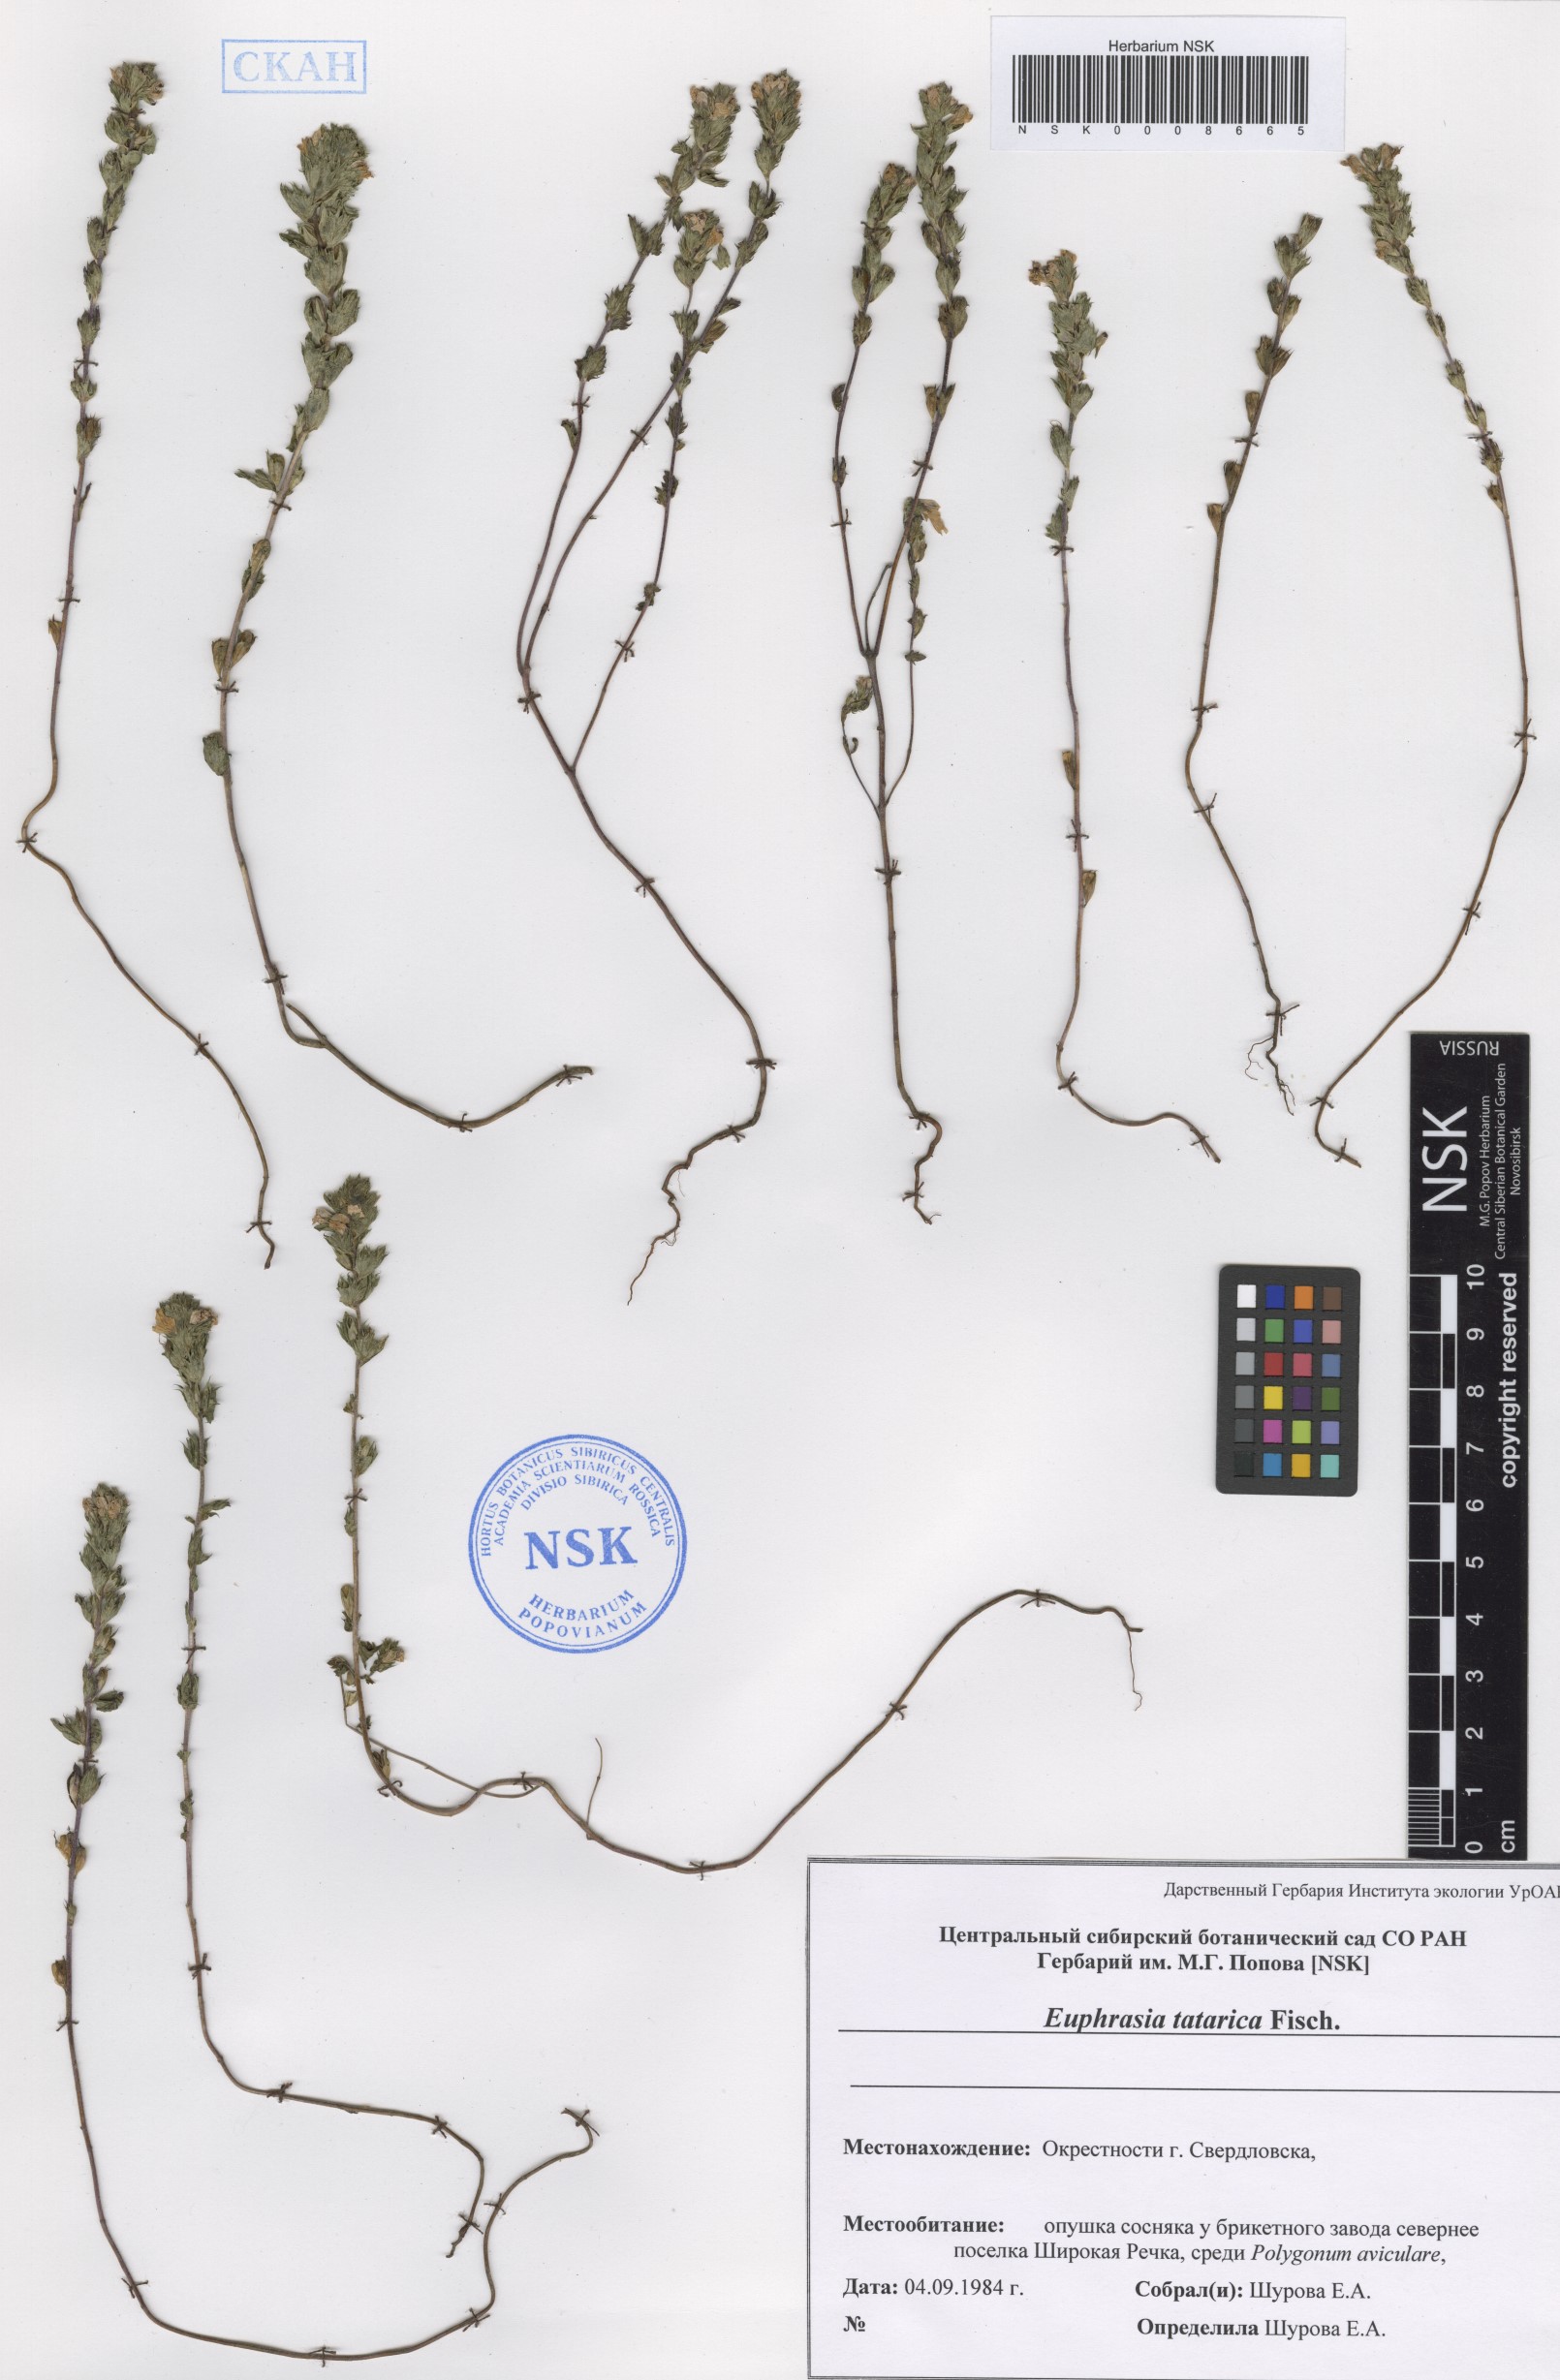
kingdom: Plantae
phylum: Tracheophyta
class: Magnoliopsida
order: Lamiales
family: Orobanchaceae
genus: Euphrasia
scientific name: Euphrasia pectinata
